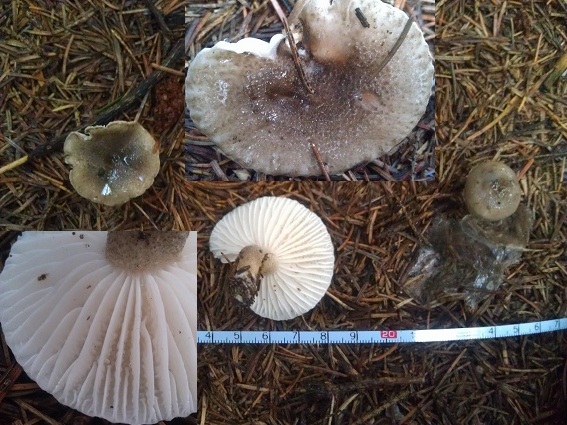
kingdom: Fungi
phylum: Basidiomycota
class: Agaricomycetes
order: Agaricales
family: Hygrophoraceae
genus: Hygrophorus
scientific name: Hygrophorus pustulatus
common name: mørkprikket sneglehat
